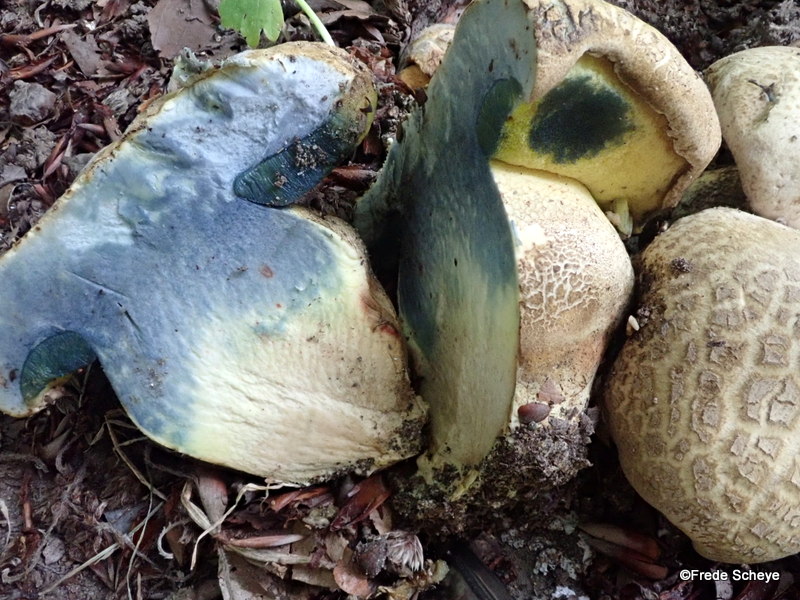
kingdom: Fungi
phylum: Basidiomycota
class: Agaricomycetes
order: Boletales
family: Boletaceae
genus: Caloboletus
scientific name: Caloboletus radicans
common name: rod-rørhat
